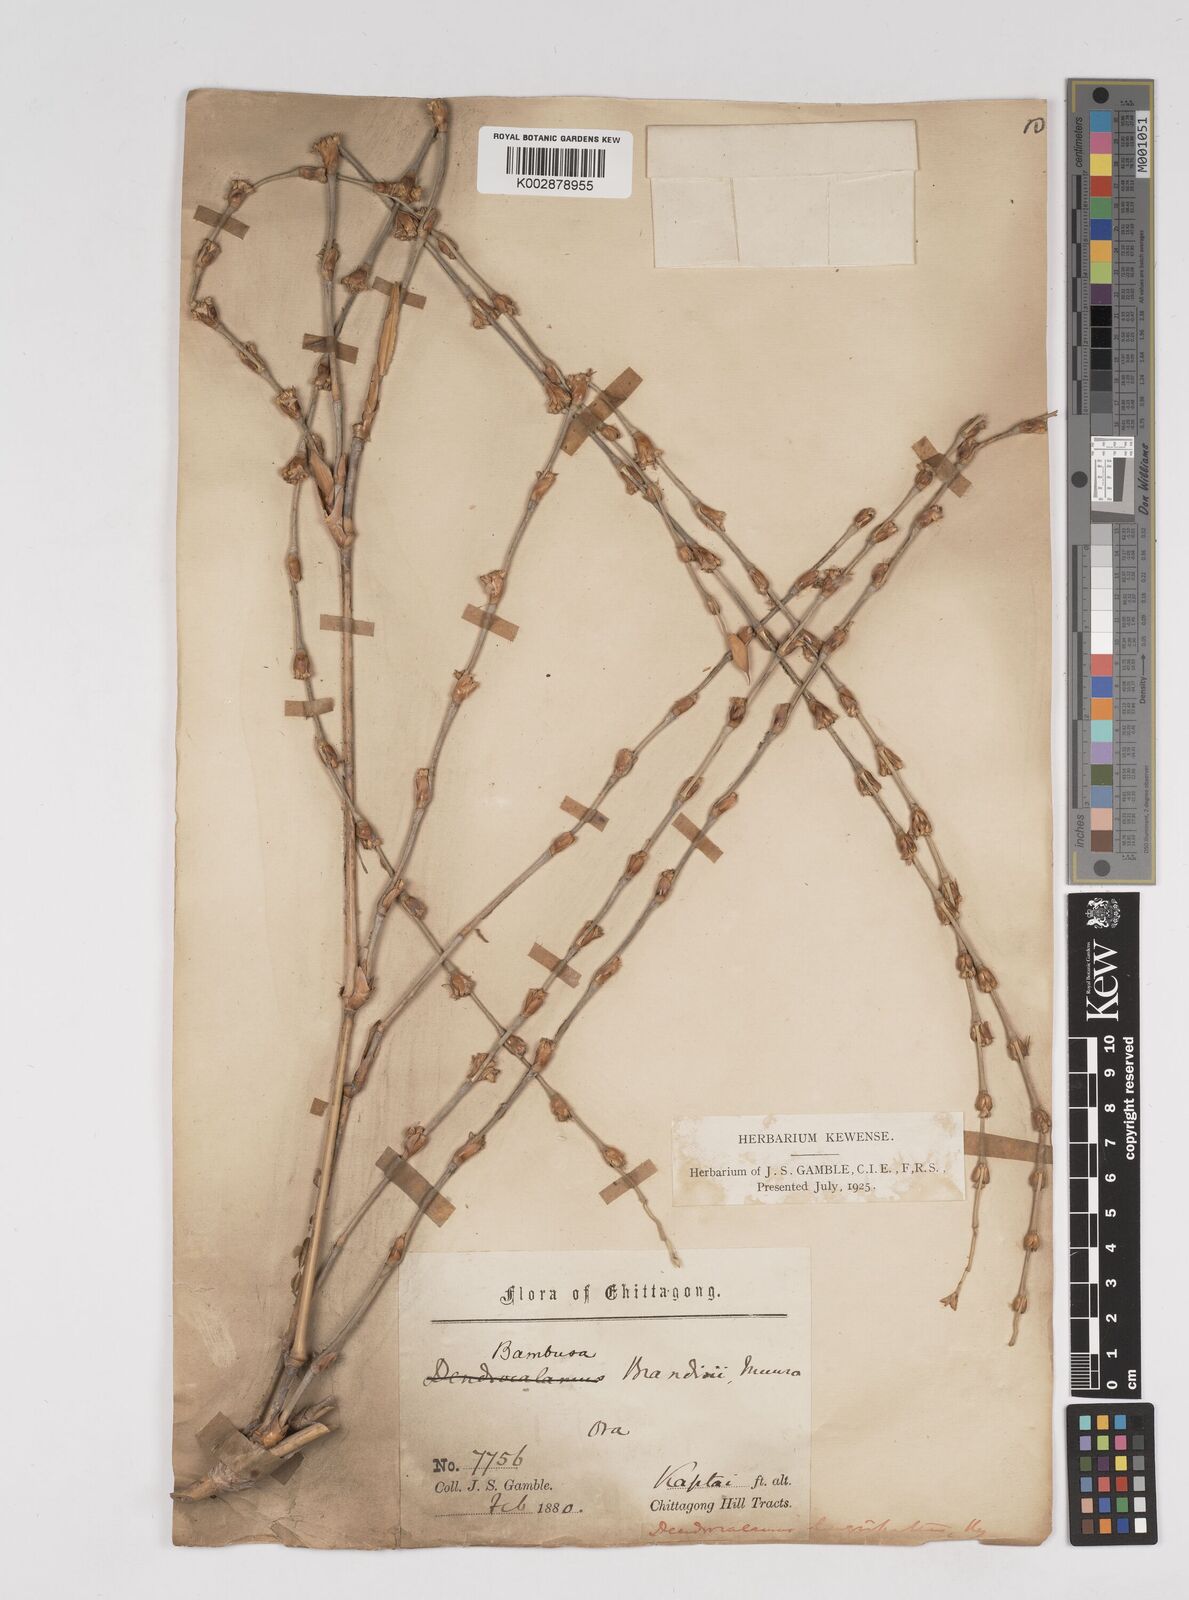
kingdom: Plantae
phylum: Tracheophyta
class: Liliopsida
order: Poales
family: Poaceae
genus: Dendrocalamus
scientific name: Dendrocalamus longispathus
